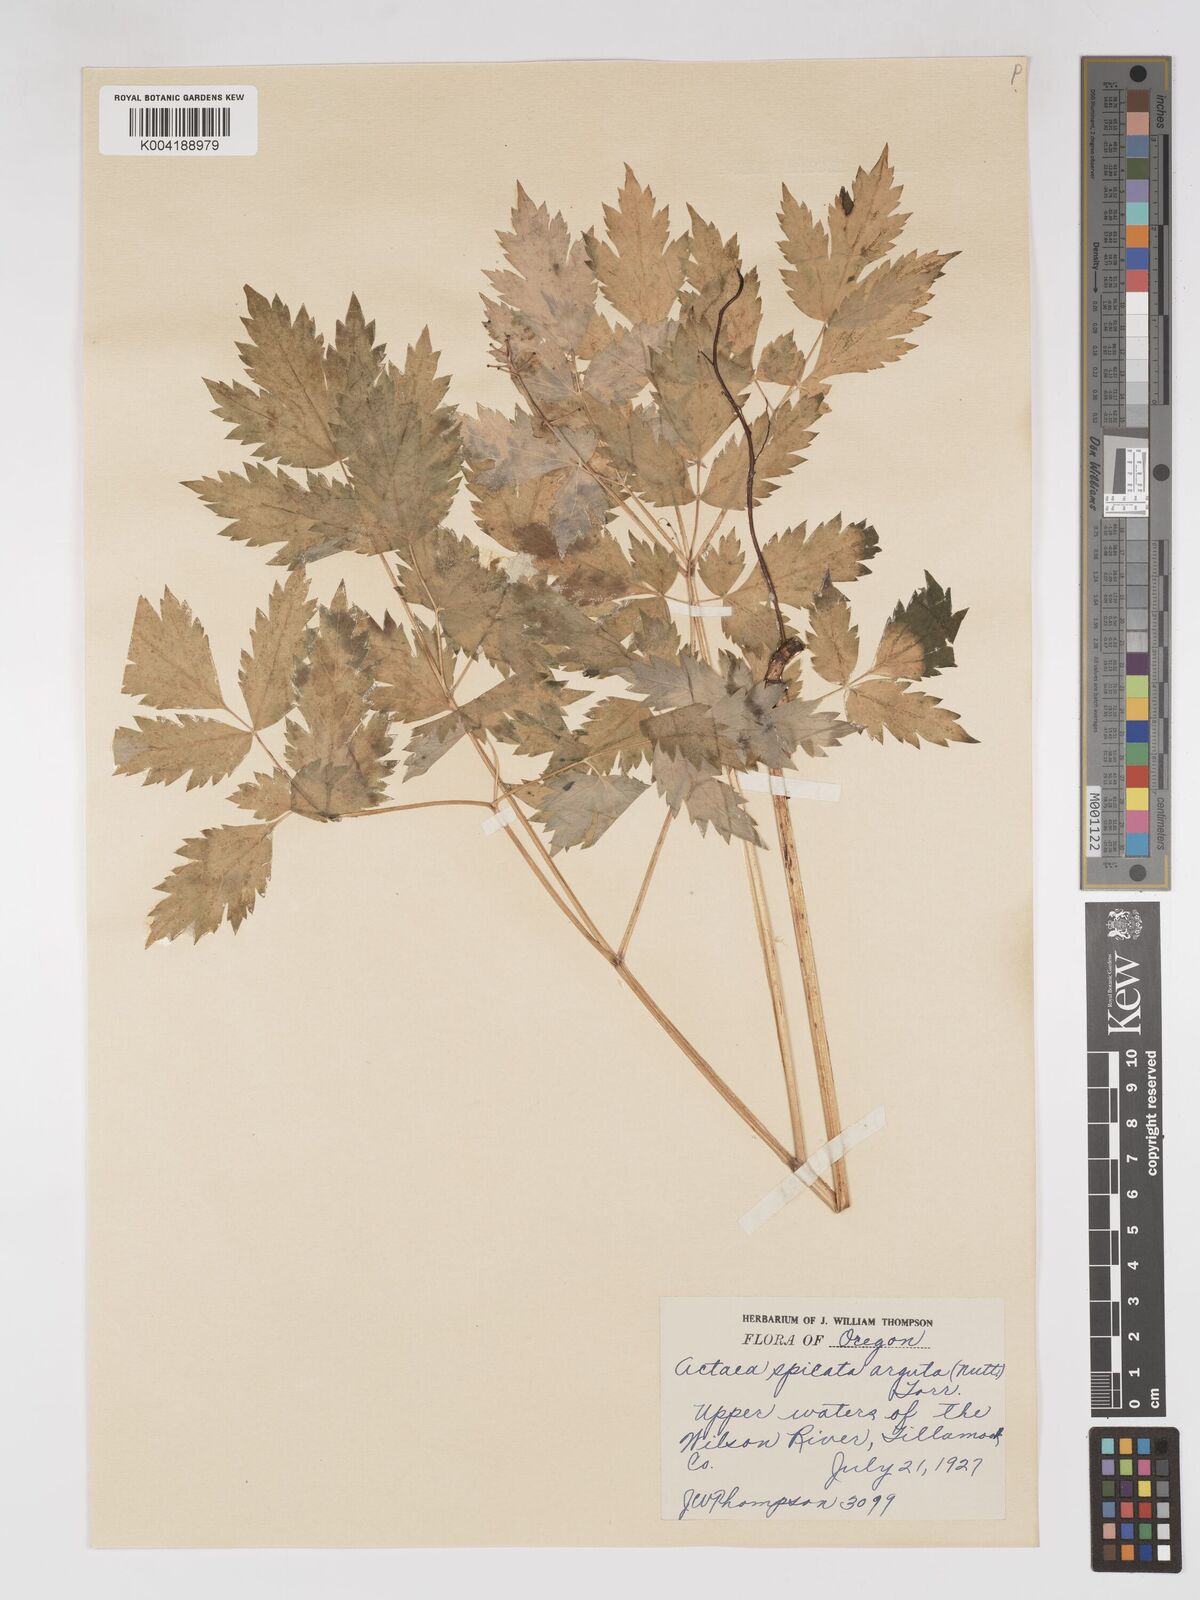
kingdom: Plantae
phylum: Tracheophyta
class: Magnoliopsida
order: Ranunculales
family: Ranunculaceae
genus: Actaea
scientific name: Actaea rubra
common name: Red baneberry
